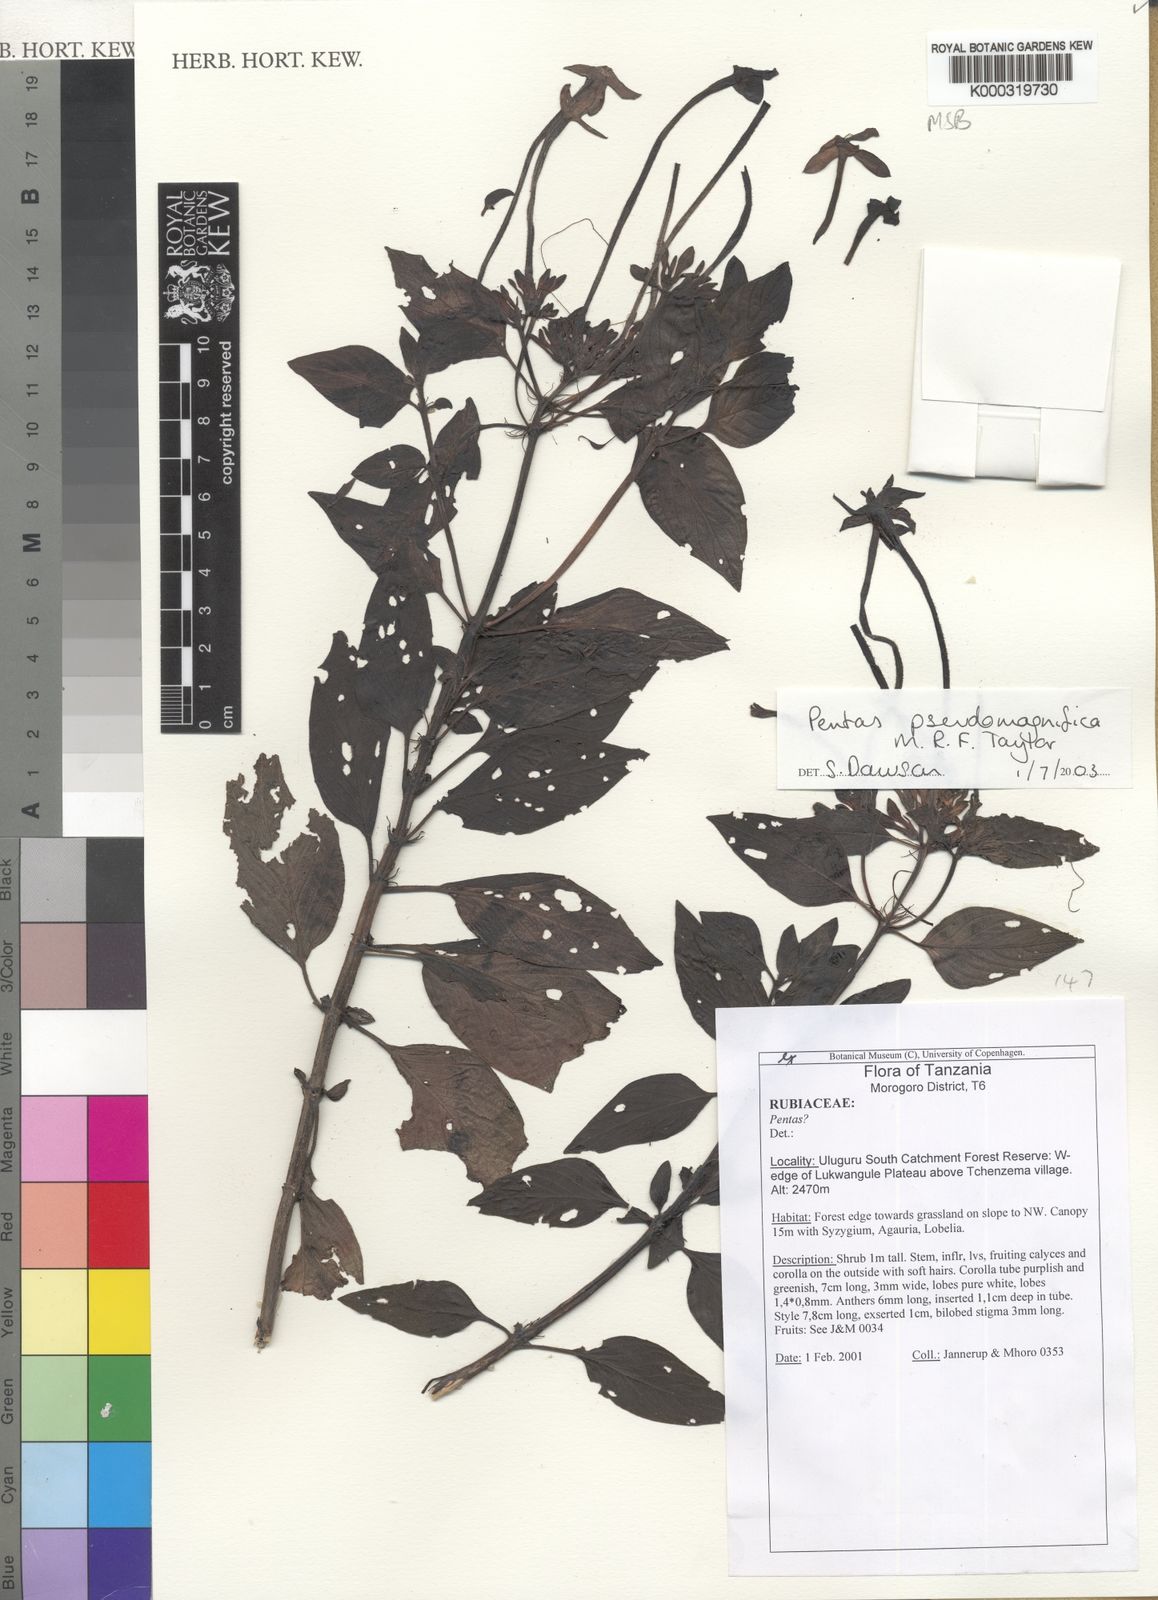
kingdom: Plantae
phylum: Tracheophyta
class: Magnoliopsida
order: Gentianales
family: Rubiaceae
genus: Chamaepentas
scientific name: Chamaepentas pseudomagnifica
